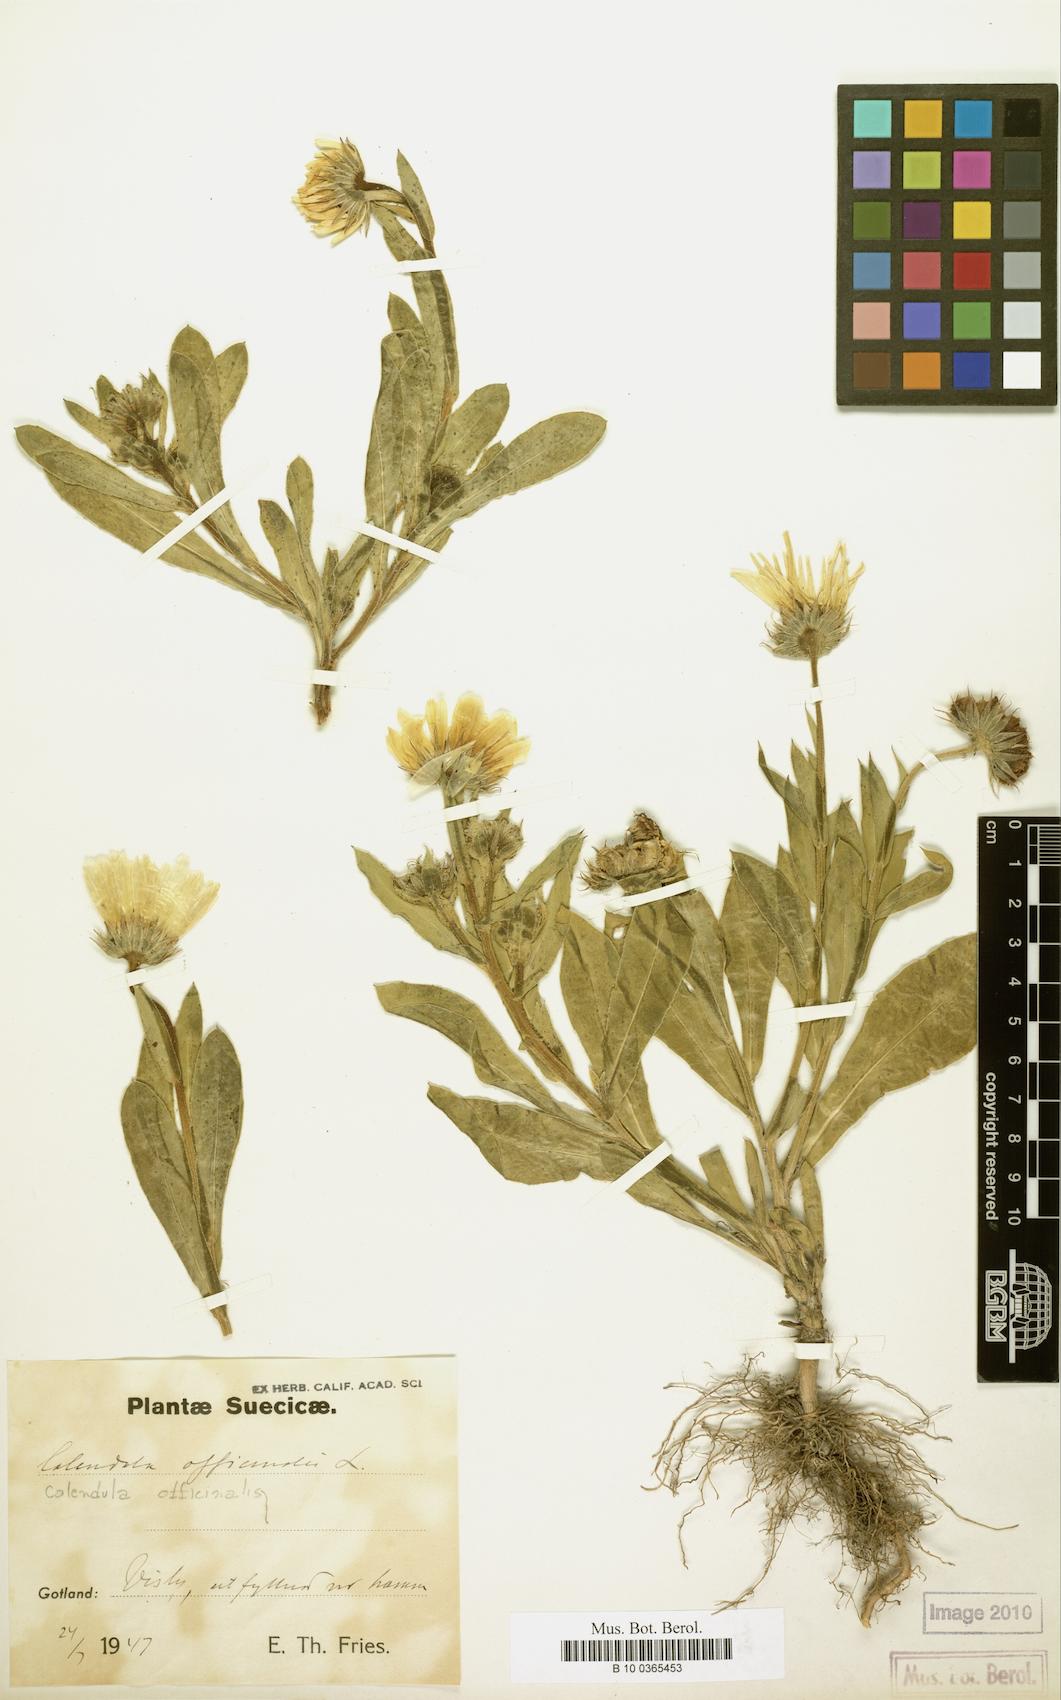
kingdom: Plantae
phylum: Tracheophyta
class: Magnoliopsida
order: Asterales
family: Asteraceae
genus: Calendula
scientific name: Calendula officinalis
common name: Pot marigold
